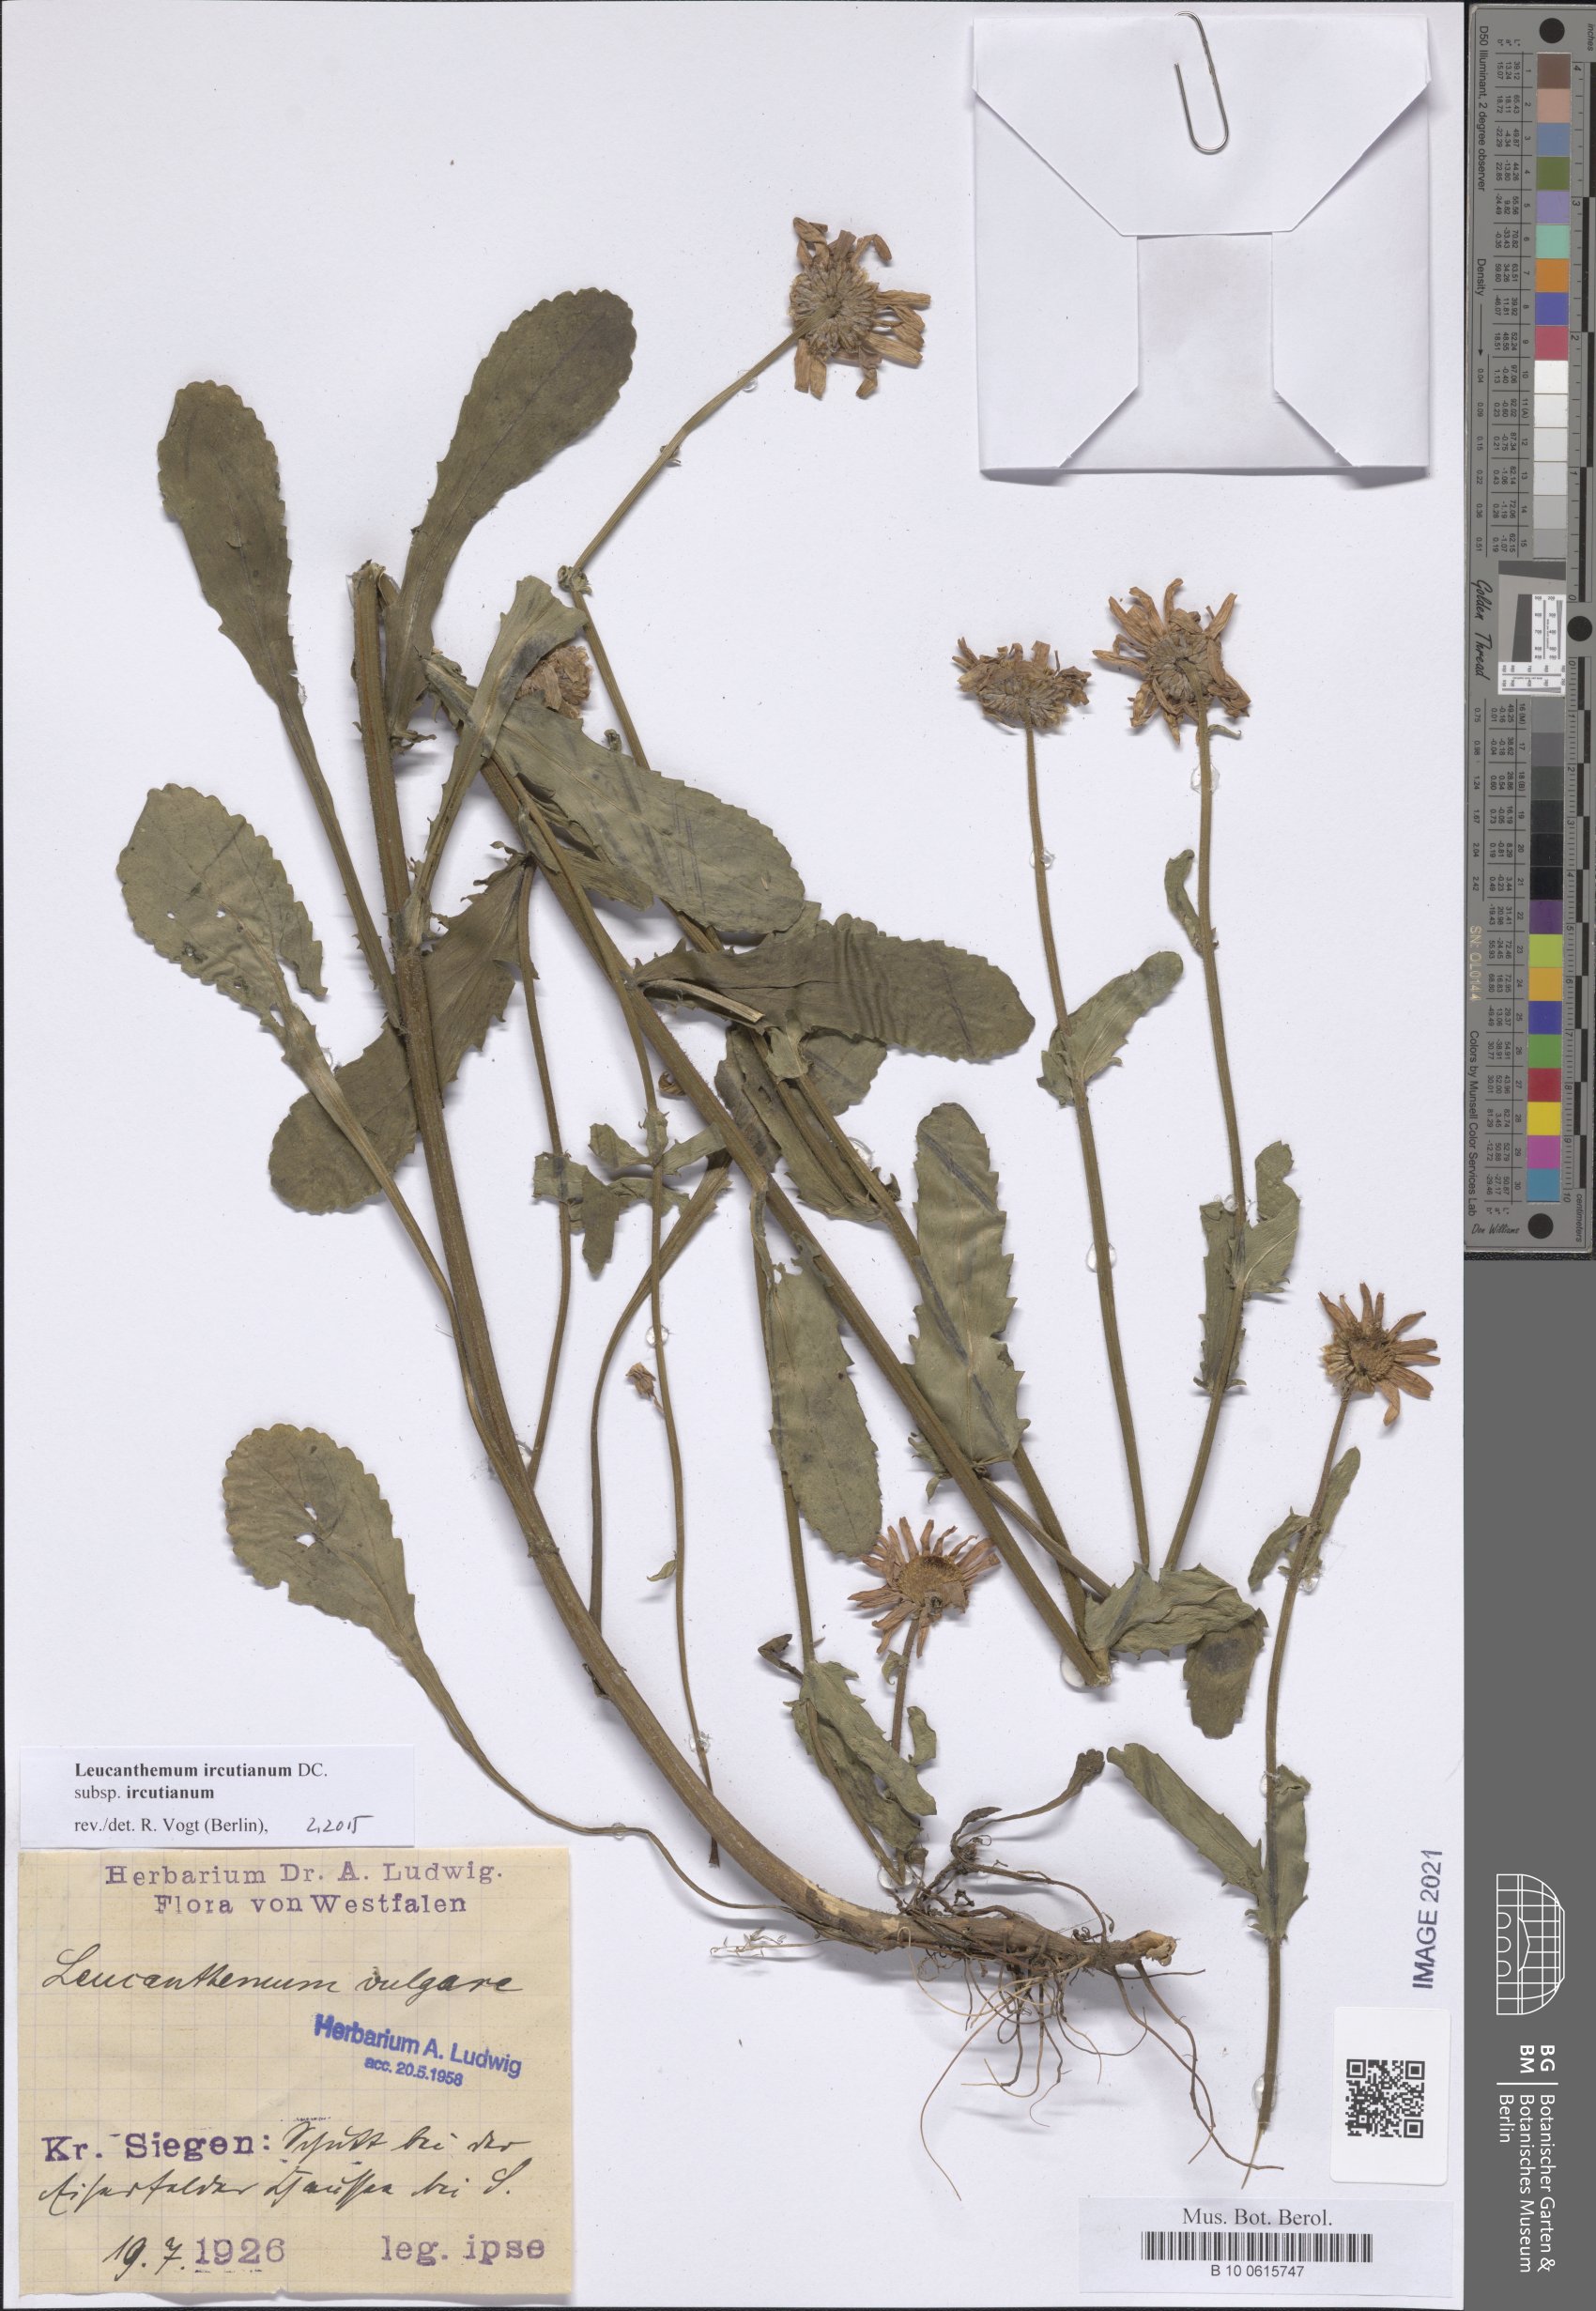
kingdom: Plantae
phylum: Tracheophyta
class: Magnoliopsida
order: Asterales
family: Asteraceae
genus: Leucanthemum
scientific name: Leucanthemum ircutianum
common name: Daisy
